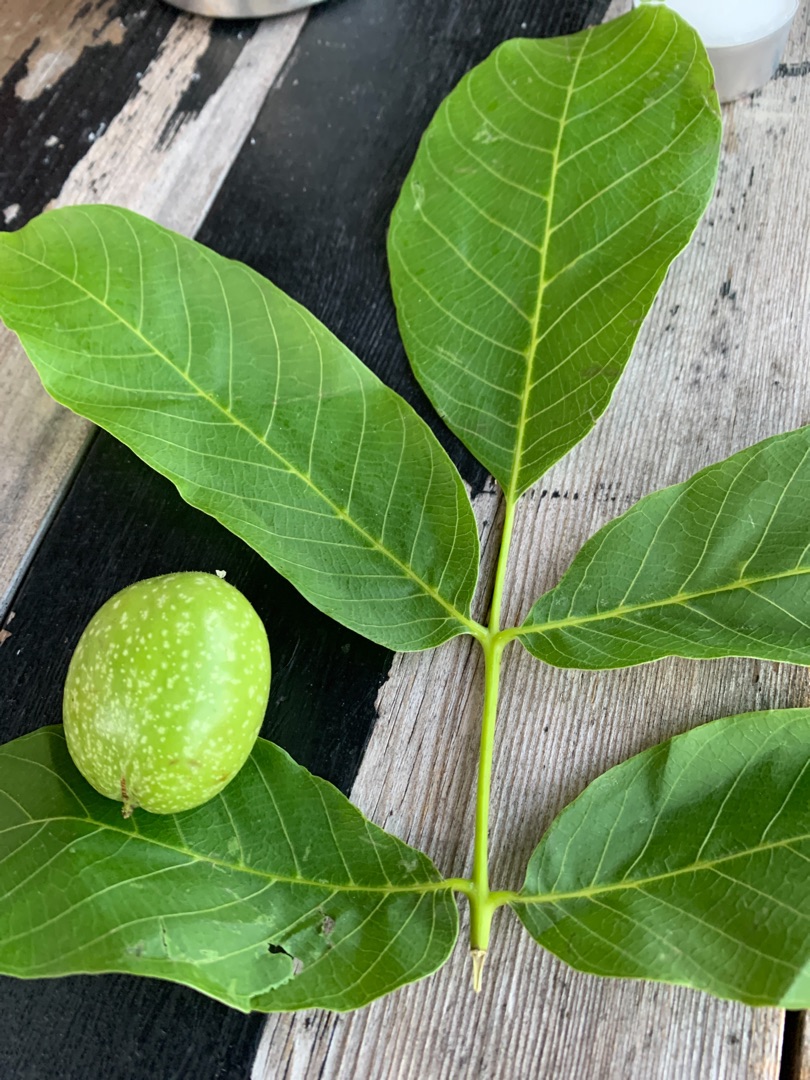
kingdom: Plantae
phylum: Tracheophyta
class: Magnoliopsida
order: Fagales
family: Juglandaceae
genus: Juglans
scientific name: Juglans regia
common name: Almindelig valnød
